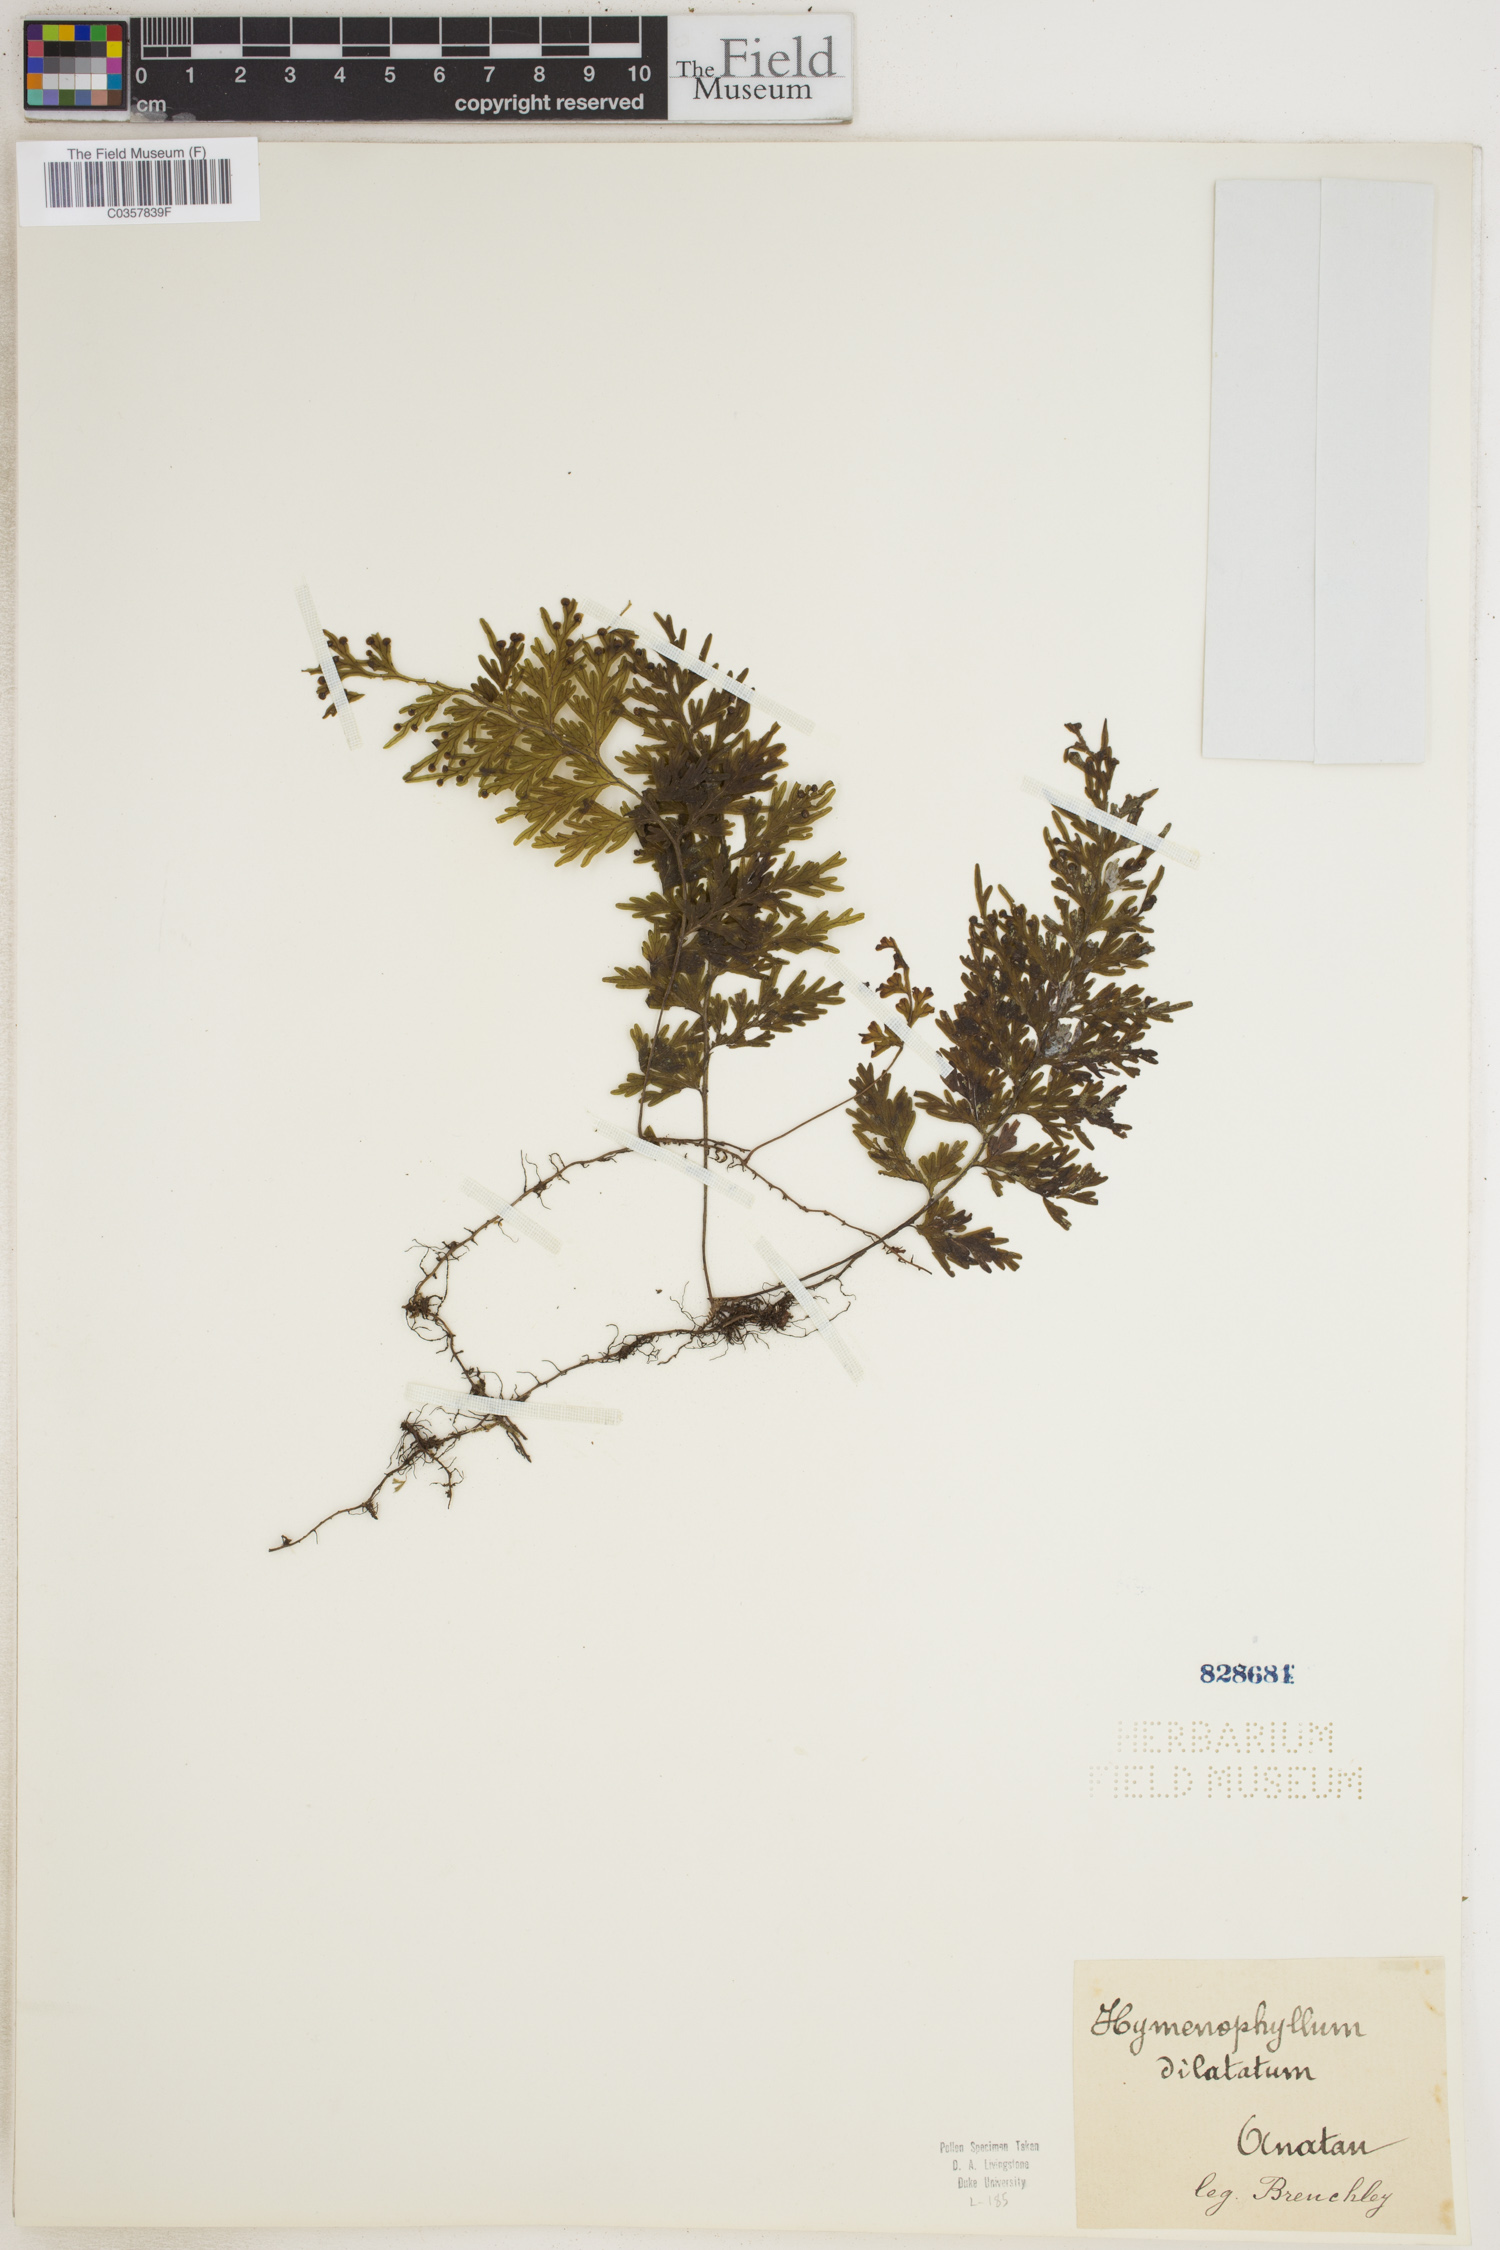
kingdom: Plantae
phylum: Tracheophyta
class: Polypodiopsida
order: Hymenophyllales
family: Hymenophyllaceae
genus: Hymenophyllum
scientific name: Hymenophyllum hirsutum
